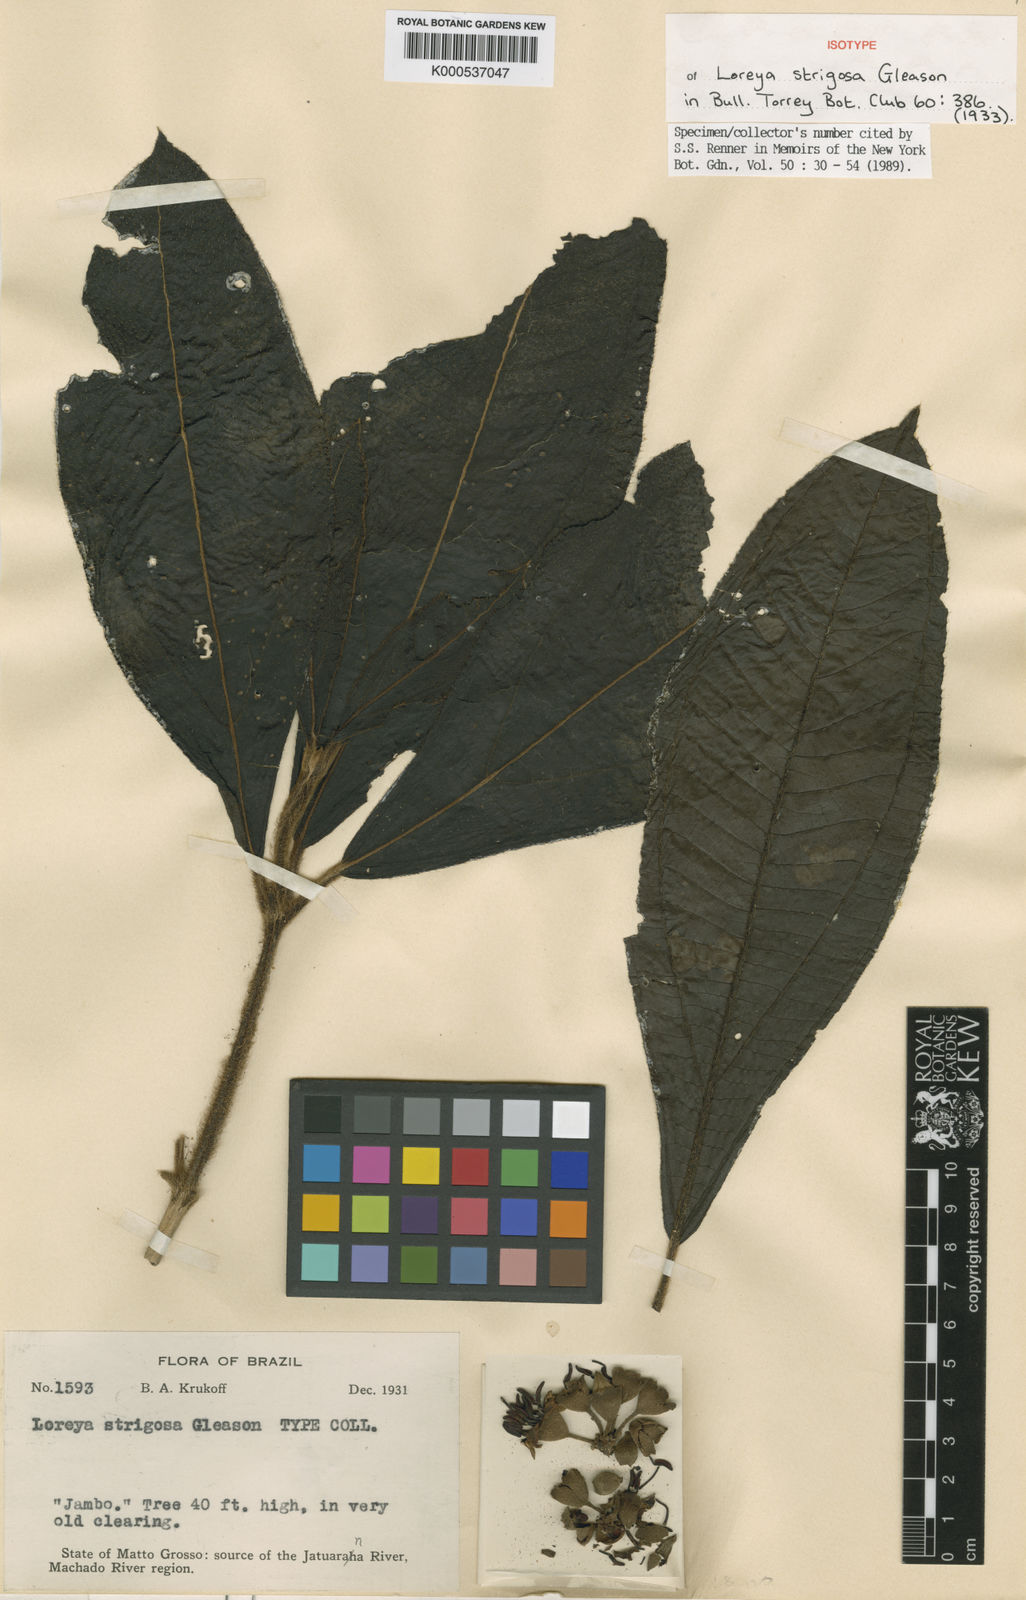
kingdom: Plantae
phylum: Tracheophyta
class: Magnoliopsida
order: Myrtales
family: Melastomataceae
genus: Bellucia
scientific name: Bellucia strigosa
